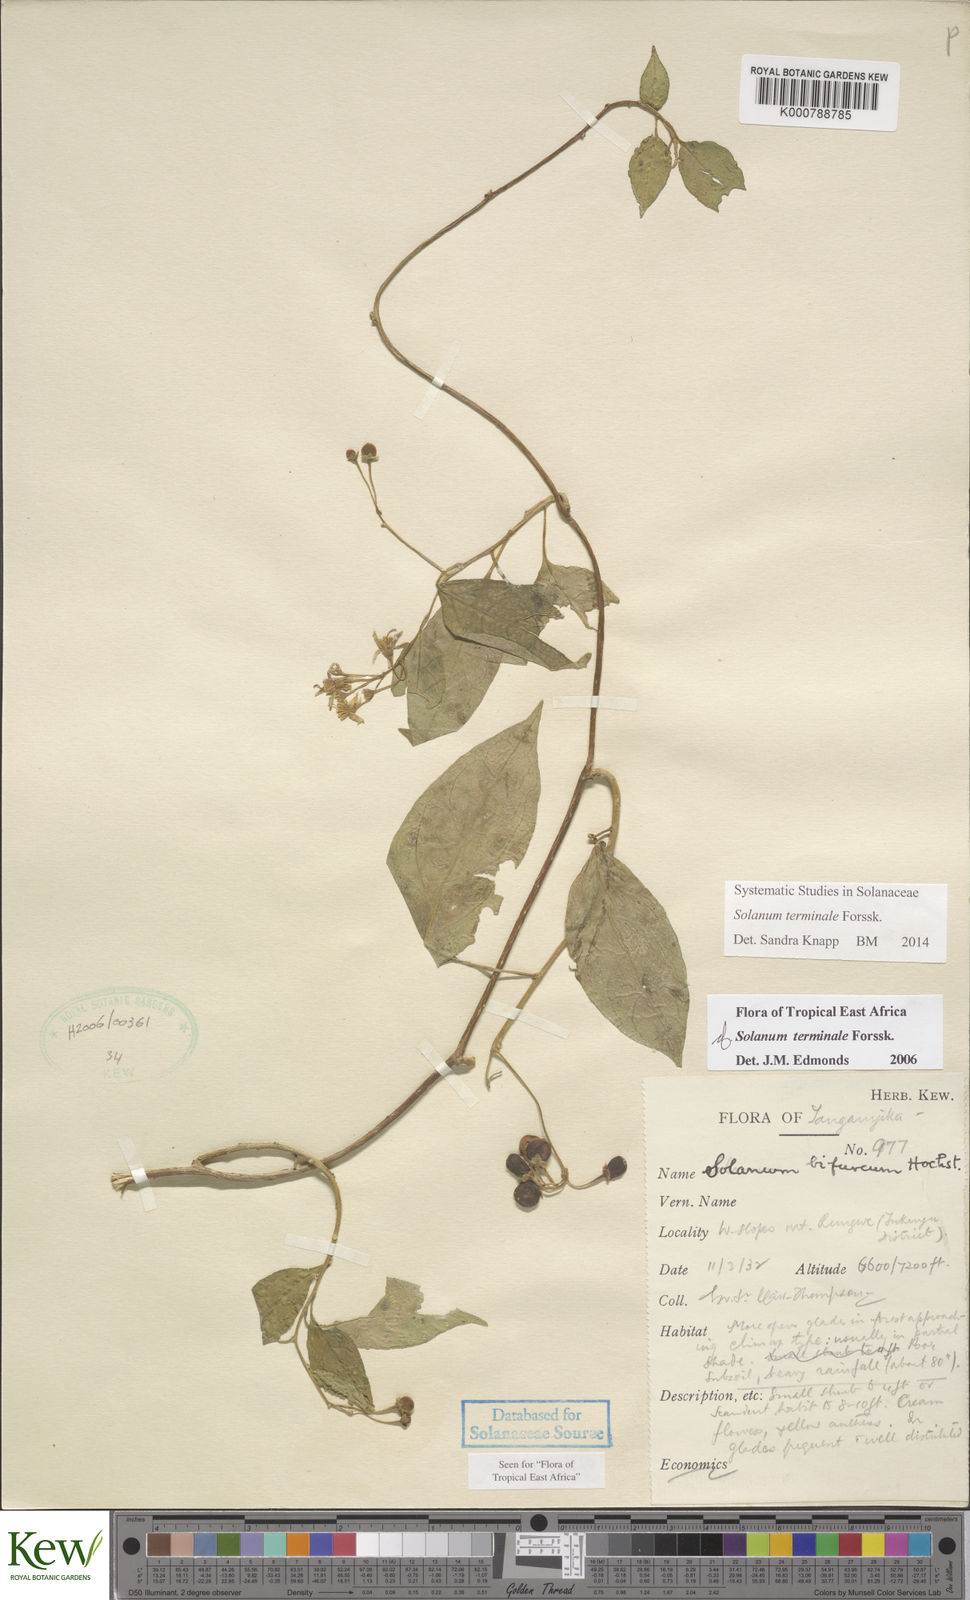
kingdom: Plantae
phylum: Tracheophyta
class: Magnoliopsida
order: Solanales
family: Solanaceae
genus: Solanum
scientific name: Solanum terminale
